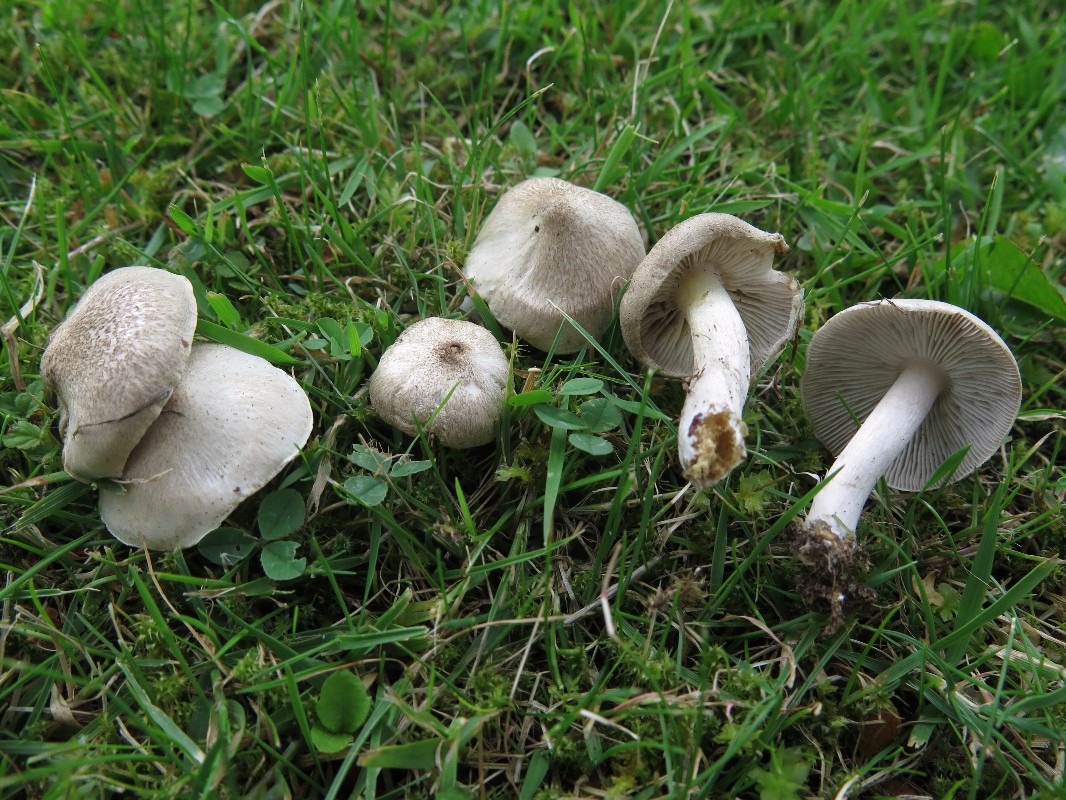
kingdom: Fungi
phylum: Basidiomycota
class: Agaricomycetes
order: Agaricales
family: Tricholomataceae
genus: Tricholoma
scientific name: Tricholoma argyraceum
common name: slør-ridderhat
